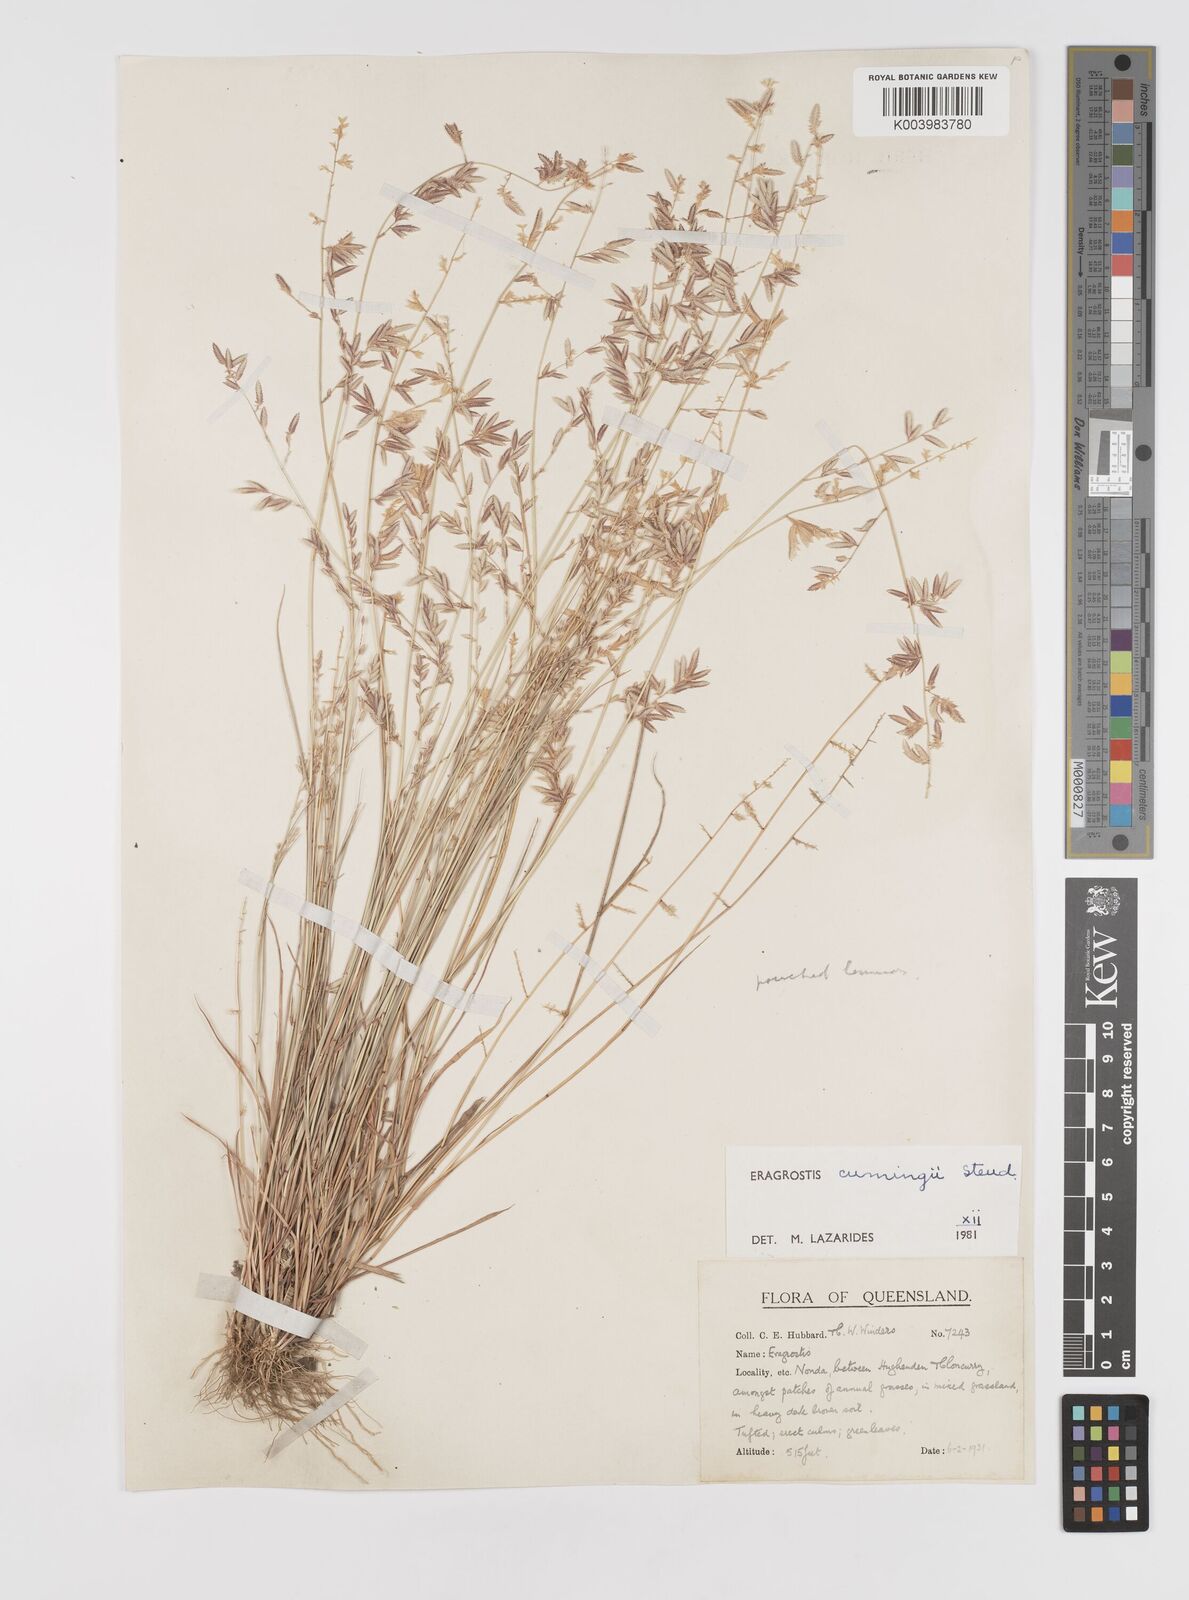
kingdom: Plantae
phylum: Tracheophyta
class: Liliopsida
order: Poales
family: Poaceae
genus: Eragrostis
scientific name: Eragrostis cumingii
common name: Cuming's lovegrass
